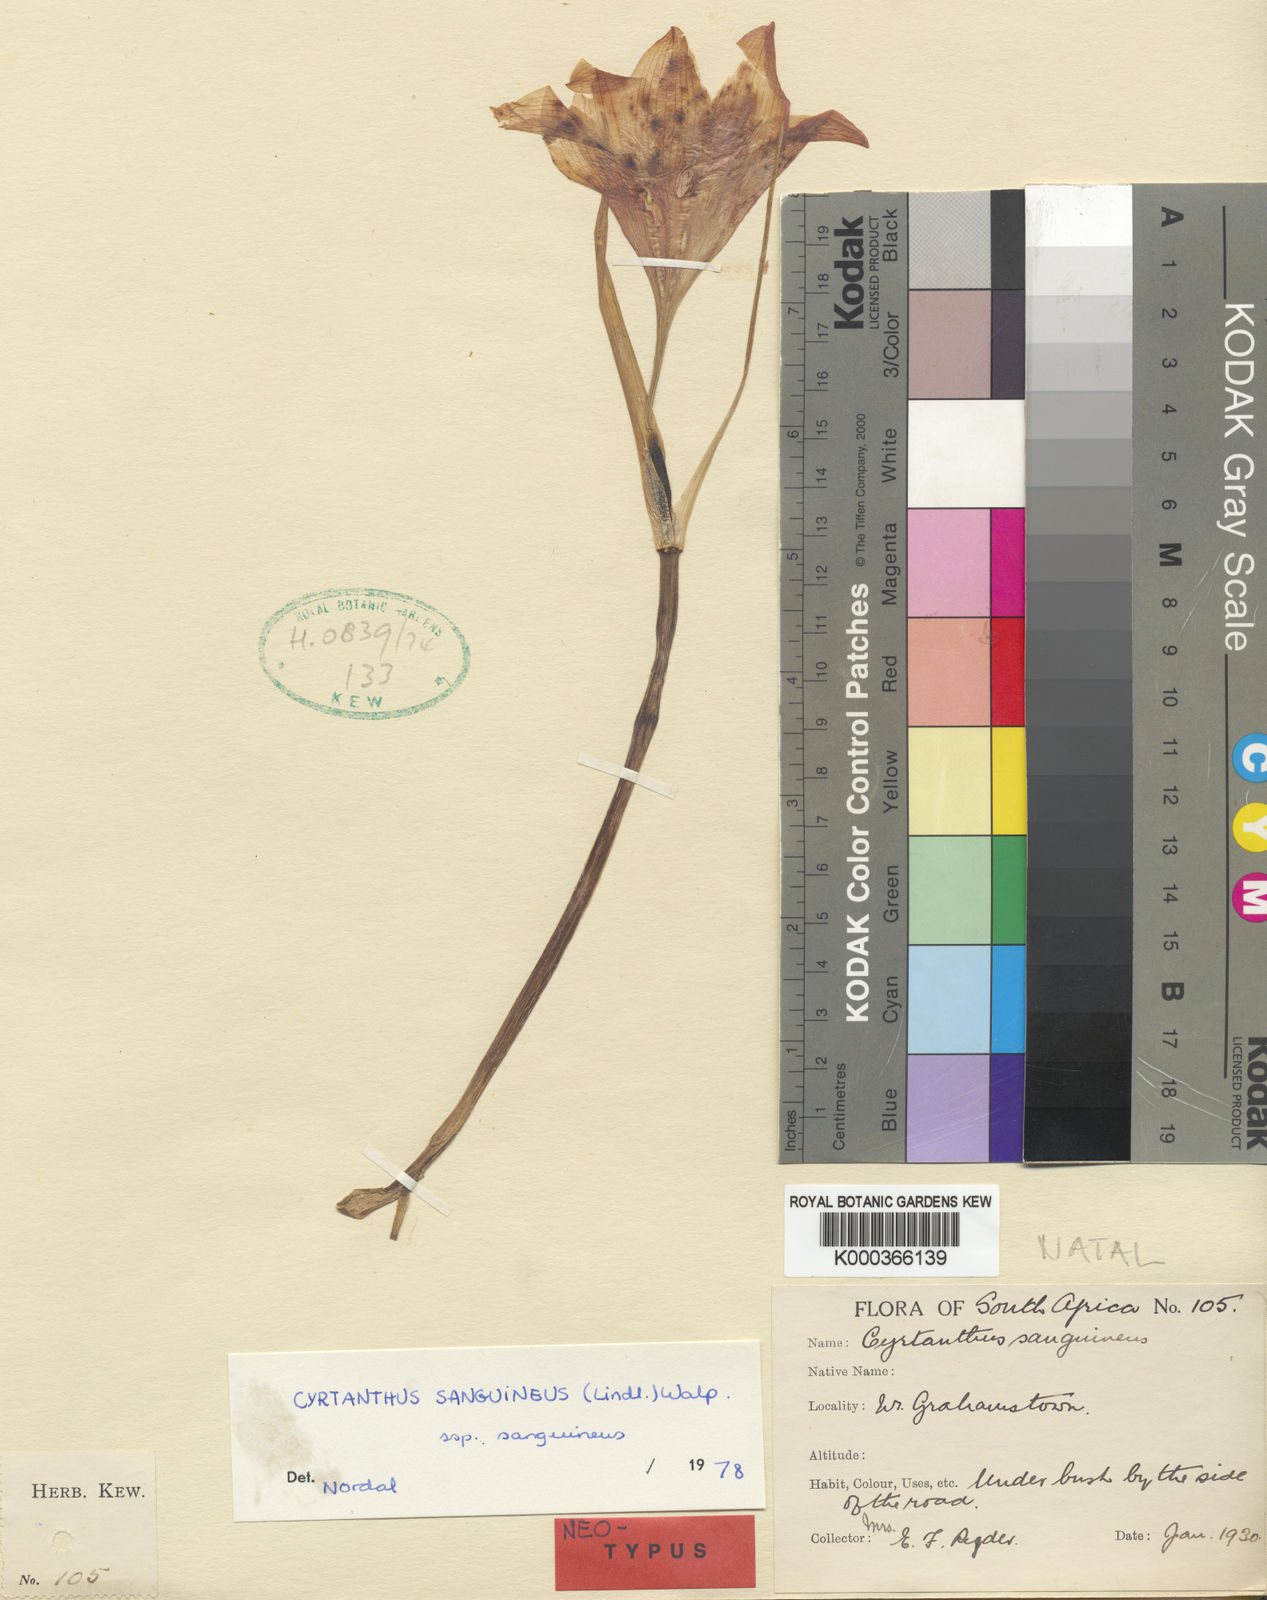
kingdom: Plantae
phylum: Tracheophyta
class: Liliopsida
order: Asparagales
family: Amaryllidaceae
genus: Cyrtanthus
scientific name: Cyrtanthus sanguineus
